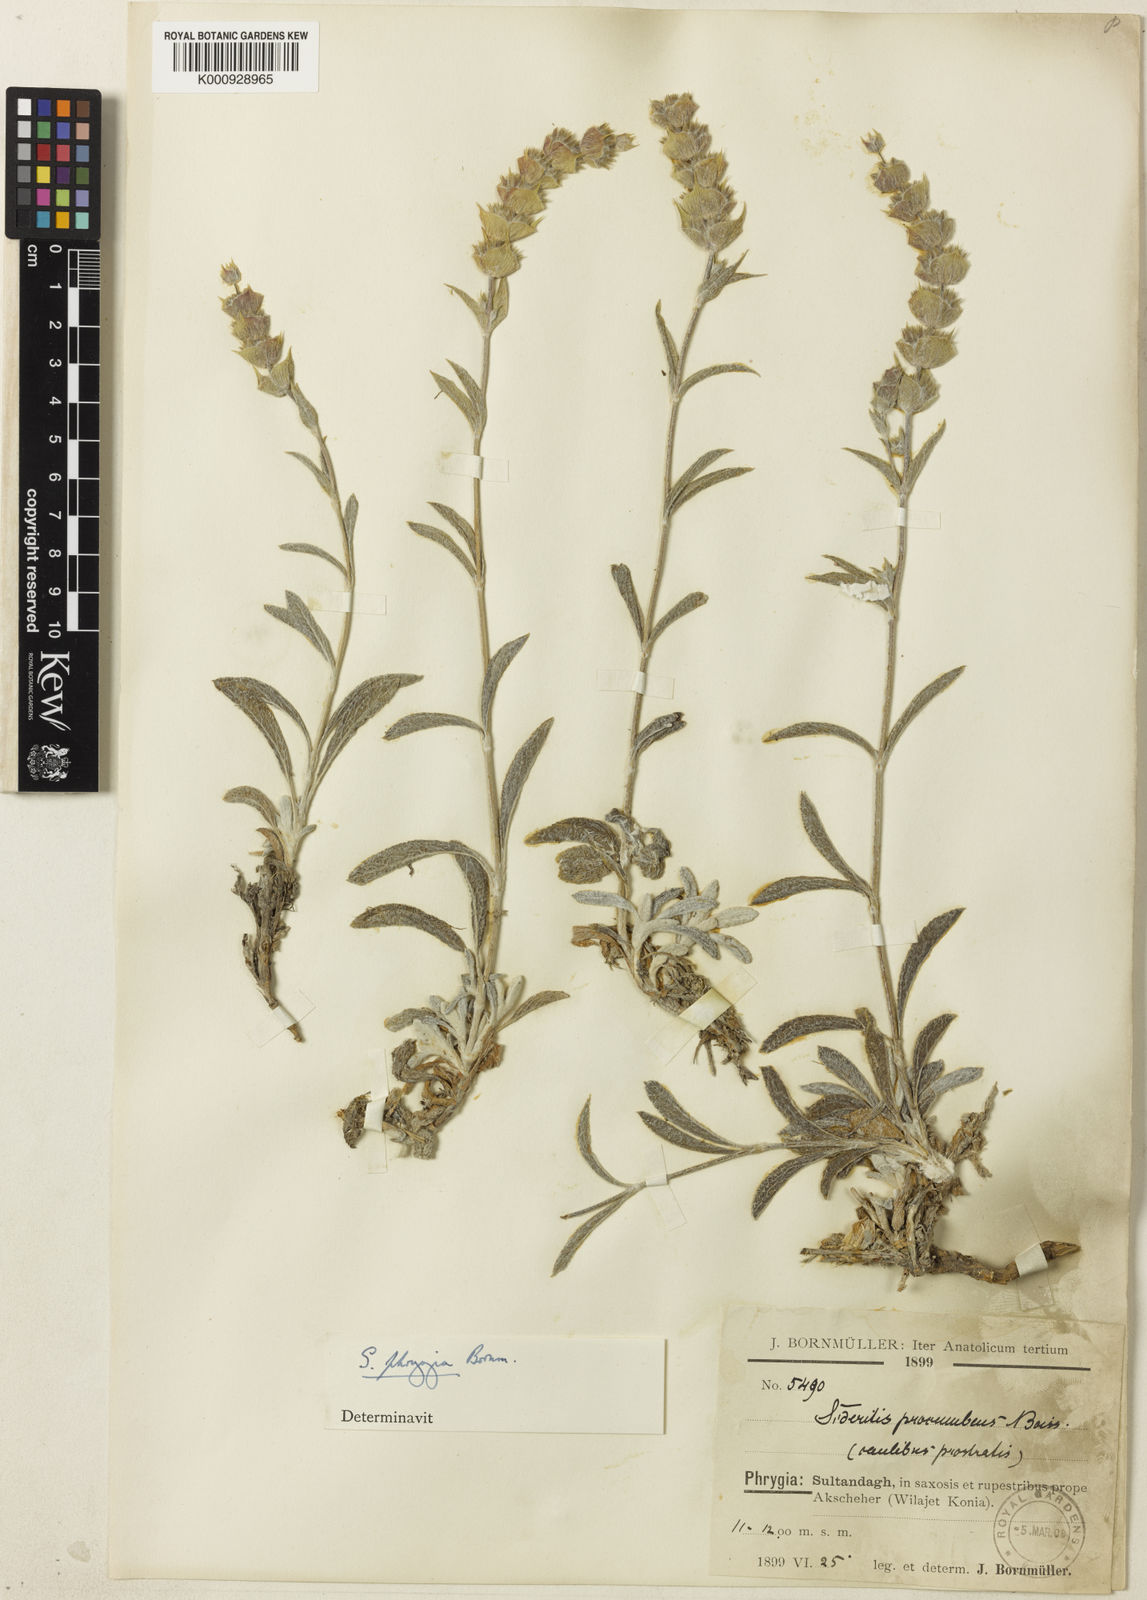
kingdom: Plantae
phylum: Tracheophyta
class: Magnoliopsida
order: Lamiales
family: Lamiaceae
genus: Sideritis
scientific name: Sideritis pisidica
